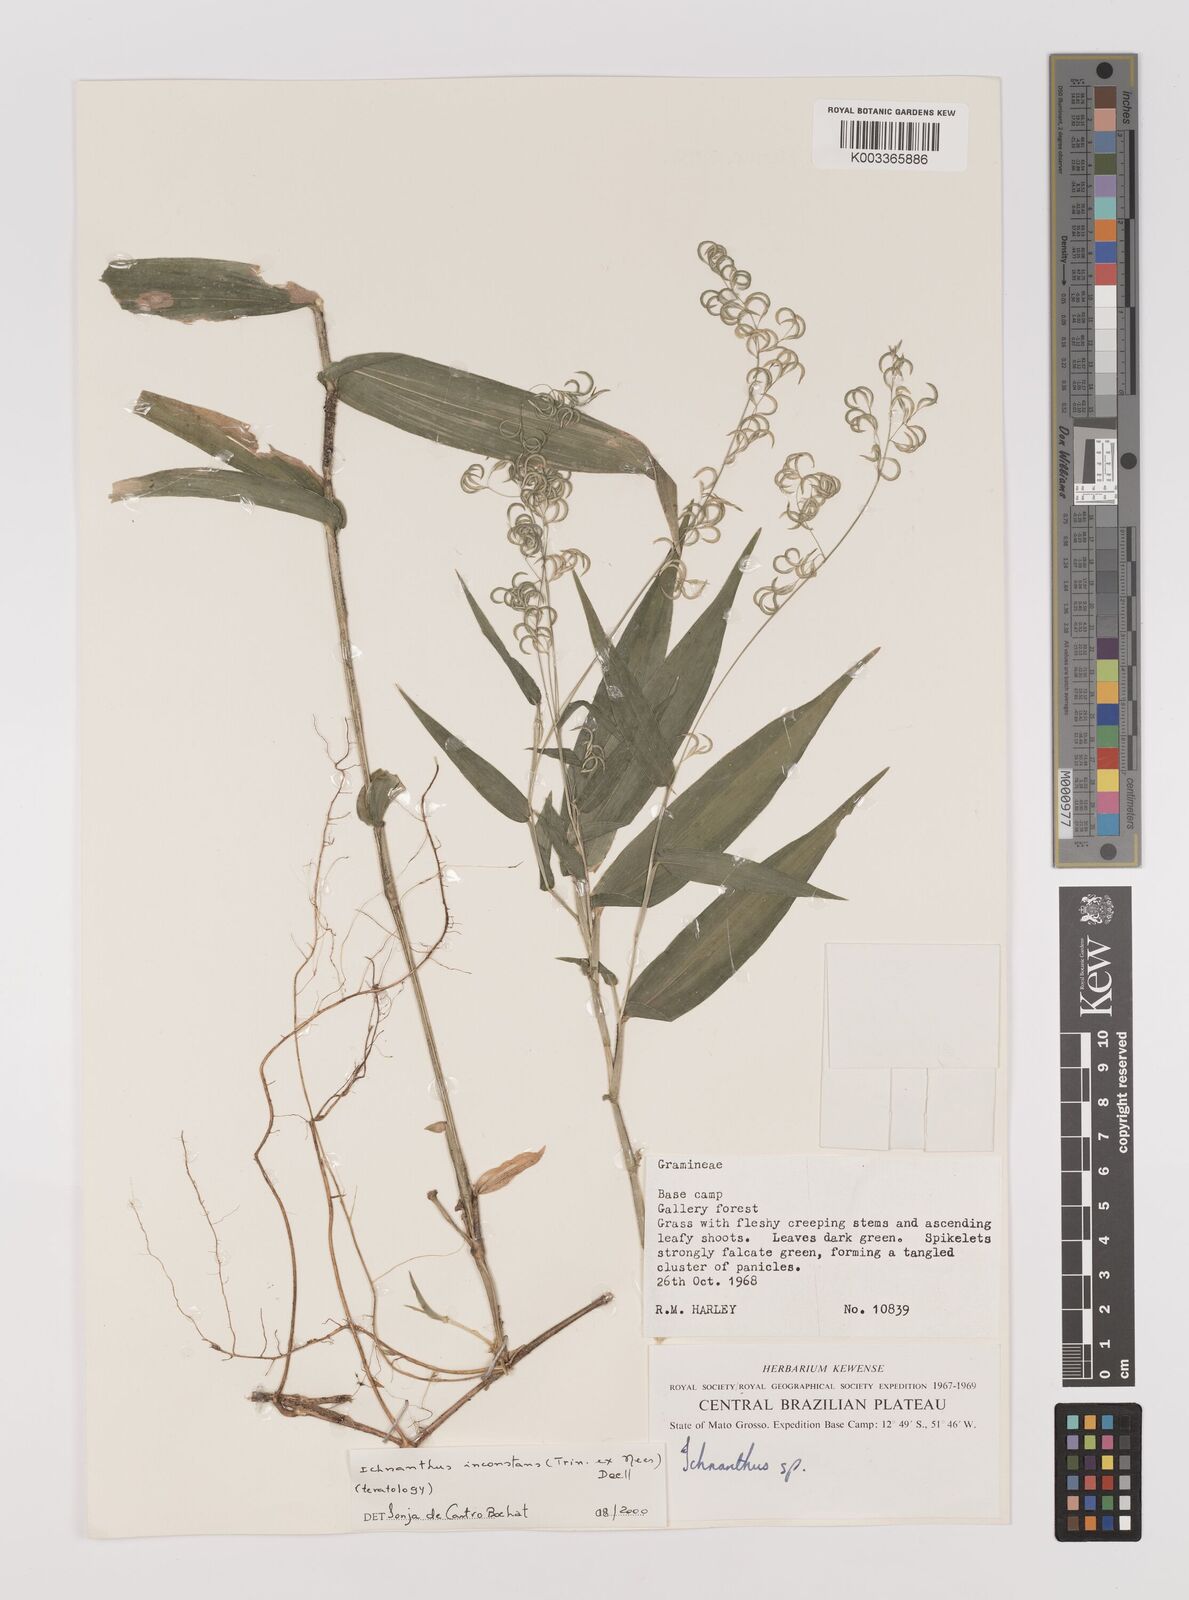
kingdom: Plantae
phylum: Tracheophyta
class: Liliopsida
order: Poales
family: Poaceae
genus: Ichnanthus
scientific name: Ichnanthus inconstans
